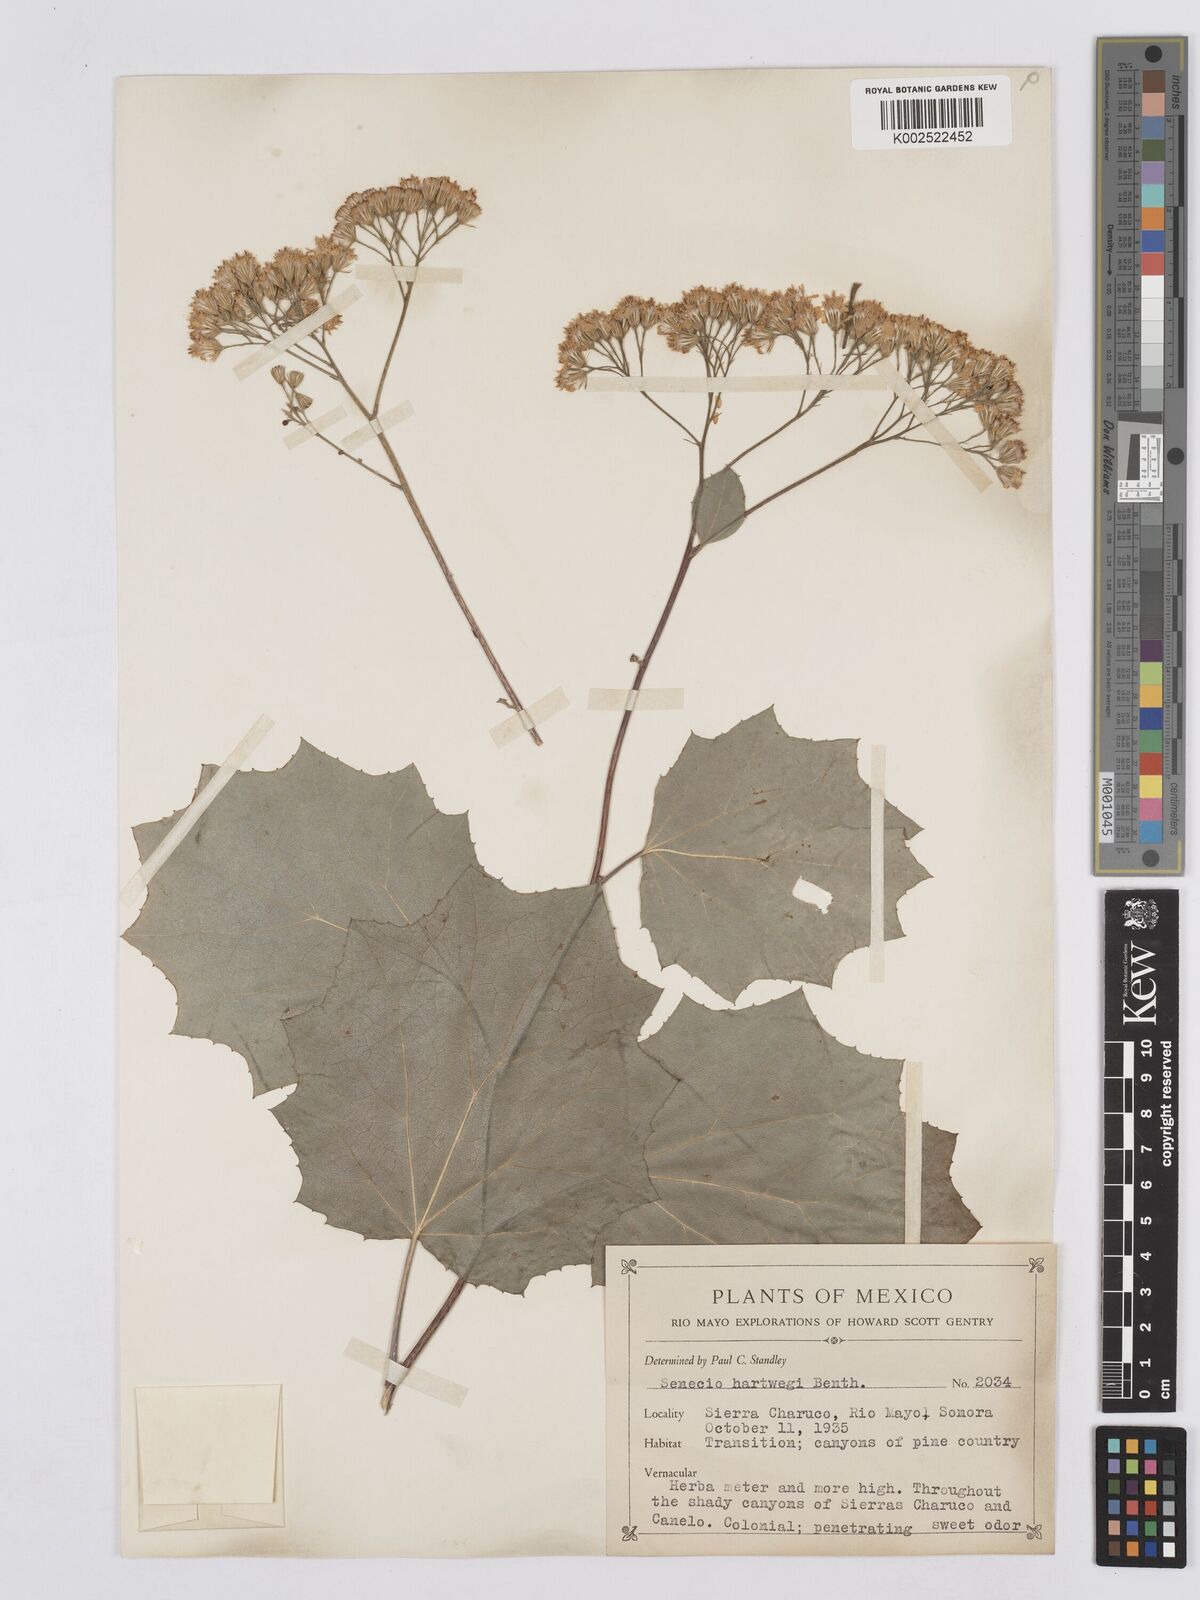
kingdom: Plantae
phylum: Tracheophyta
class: Magnoliopsida
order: Asterales
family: Asteraceae
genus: Roldana
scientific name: Roldana hartwegii
